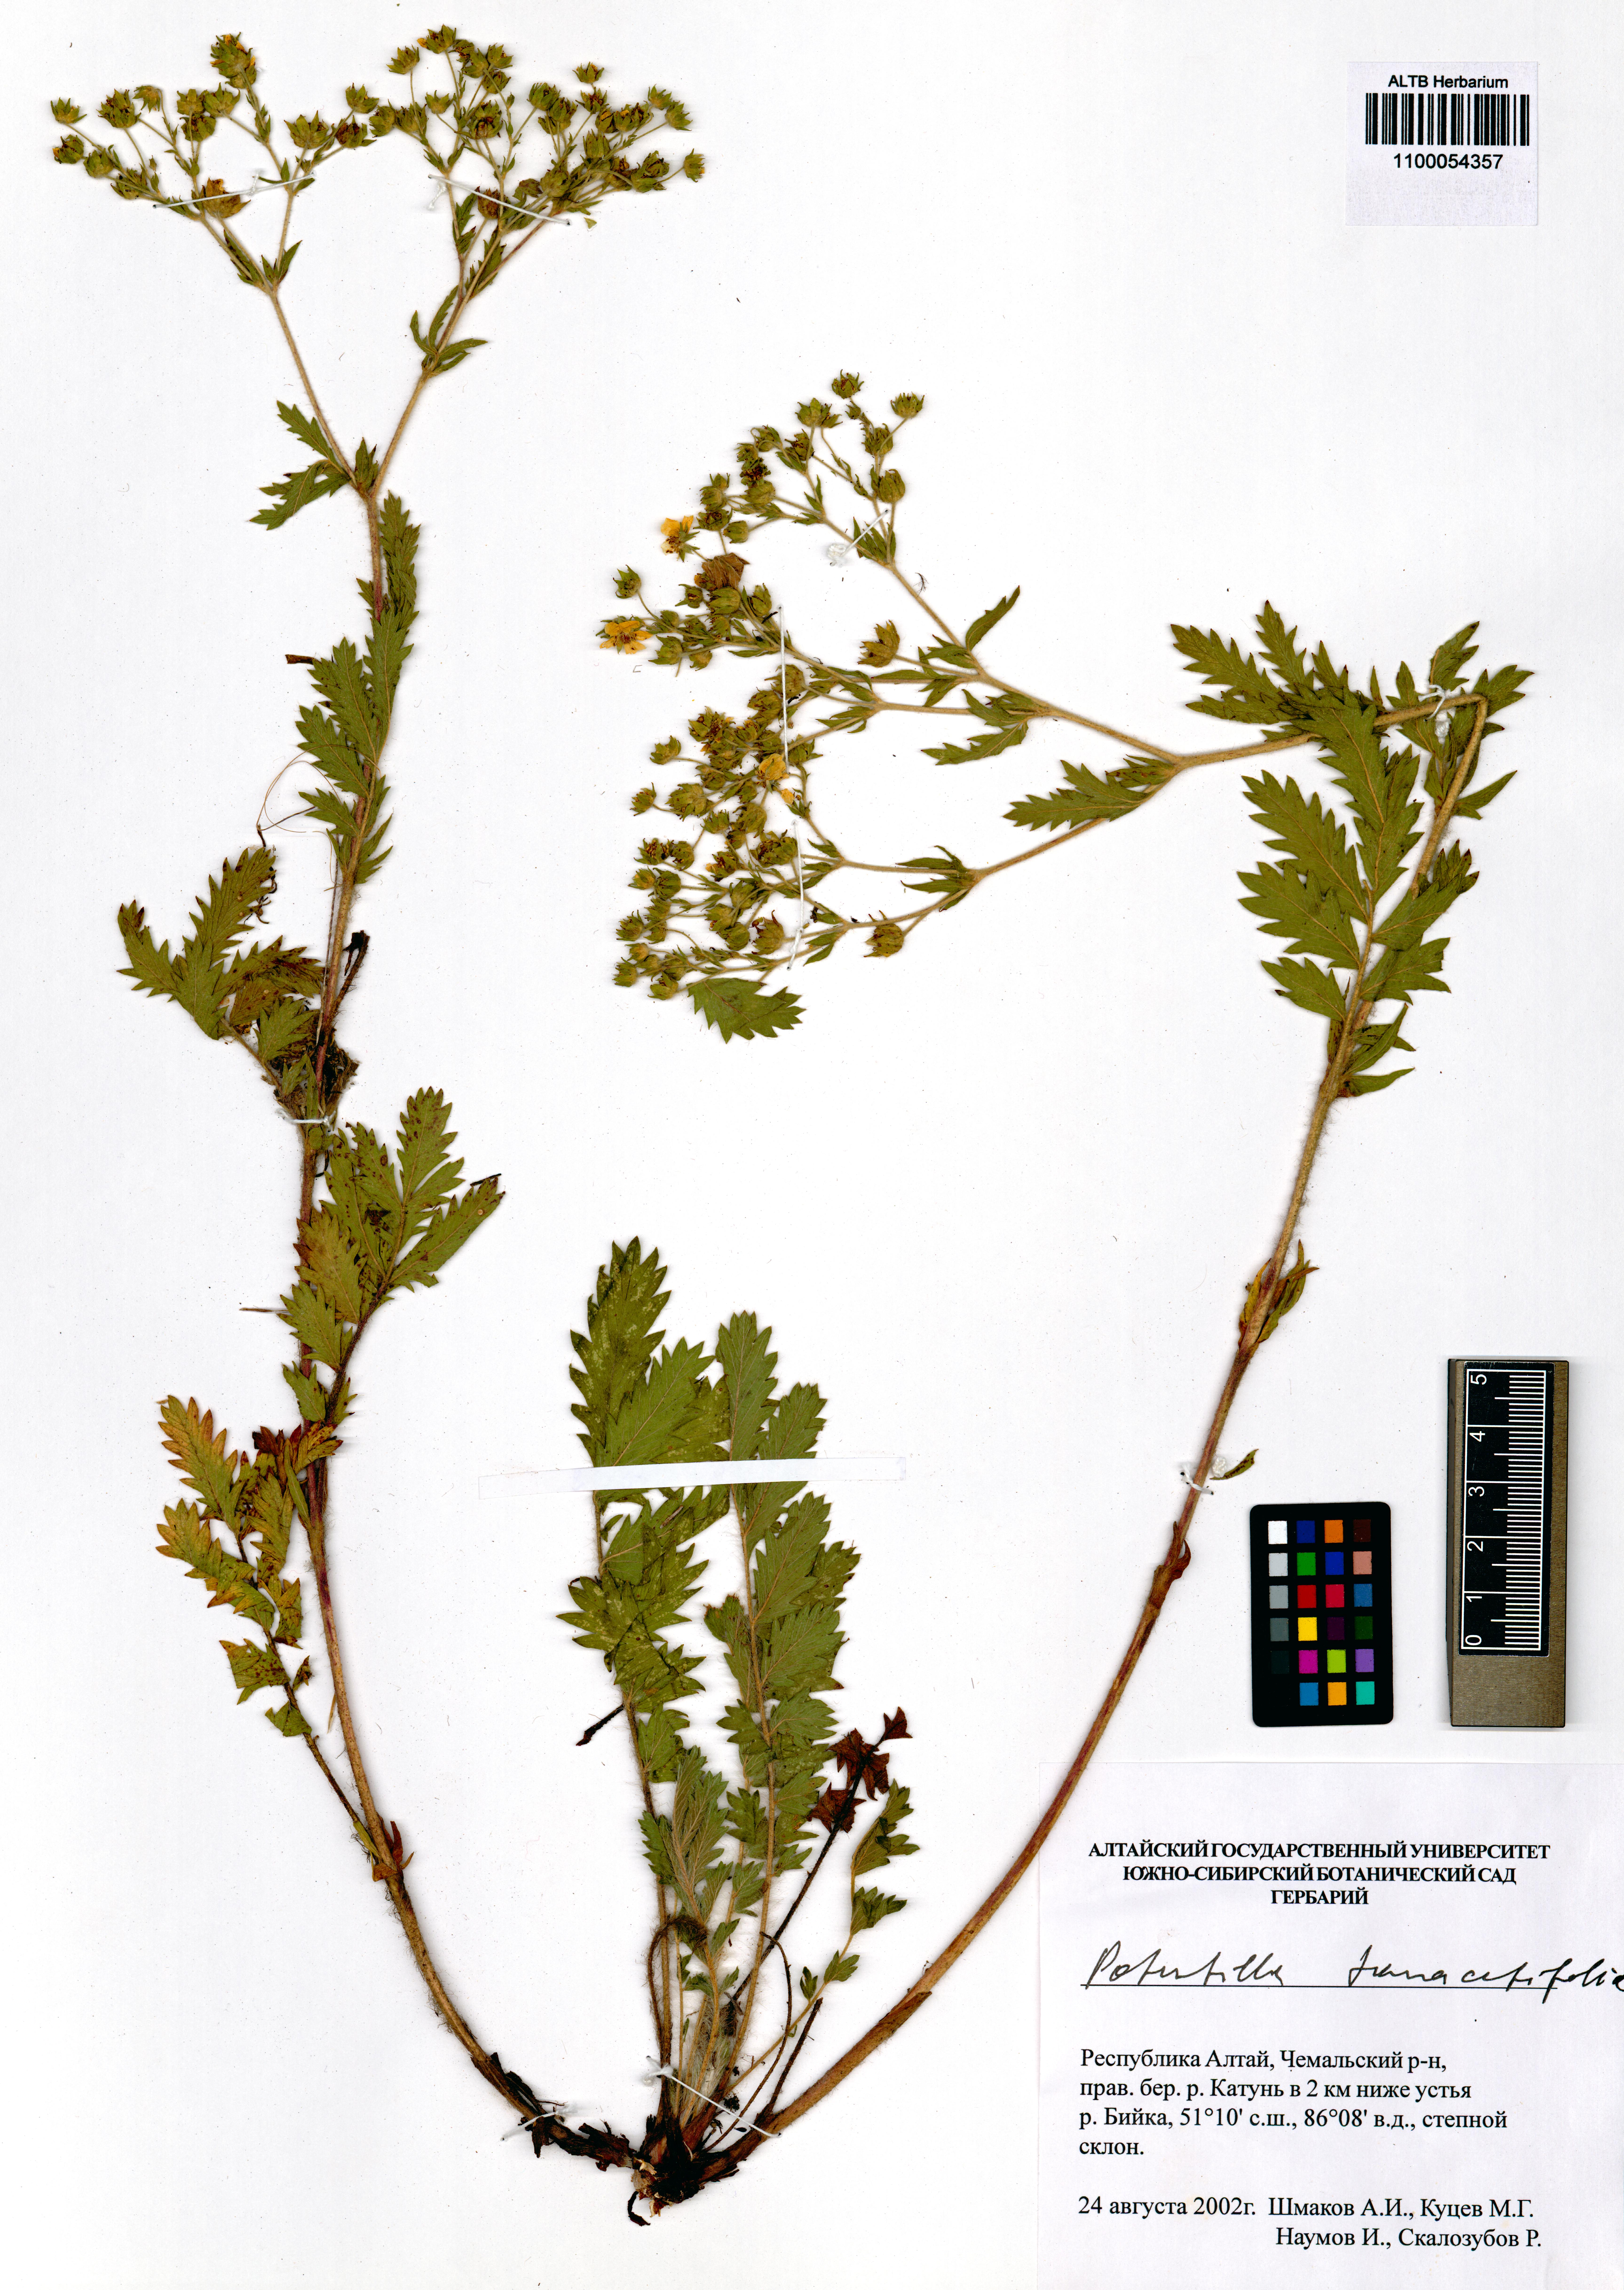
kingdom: Plantae
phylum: Tracheophyta
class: Magnoliopsida
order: Rosales
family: Rosaceae
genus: Potentilla
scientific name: Potentilla tanacetifolia
